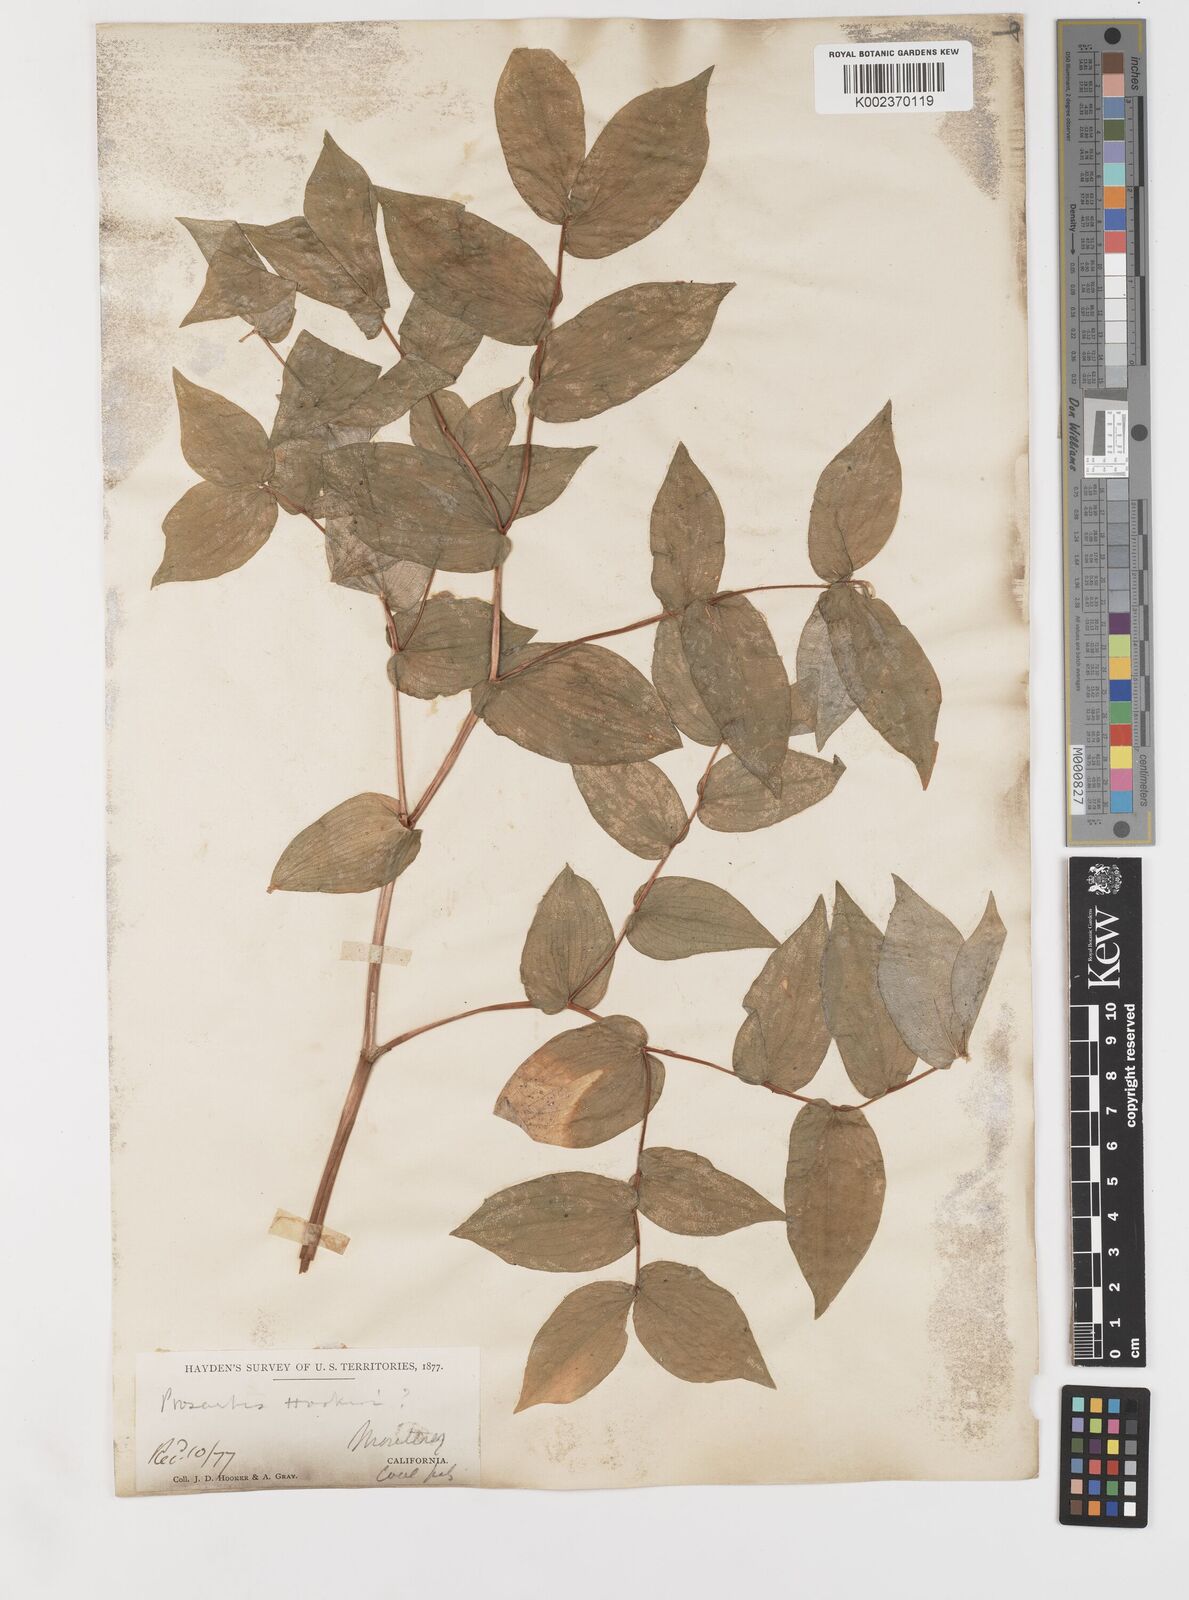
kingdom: Plantae
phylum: Tracheophyta
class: Liliopsida
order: Liliales
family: Liliaceae
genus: Prosartes
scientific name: Prosartes hookeri
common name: Fairy-bells
